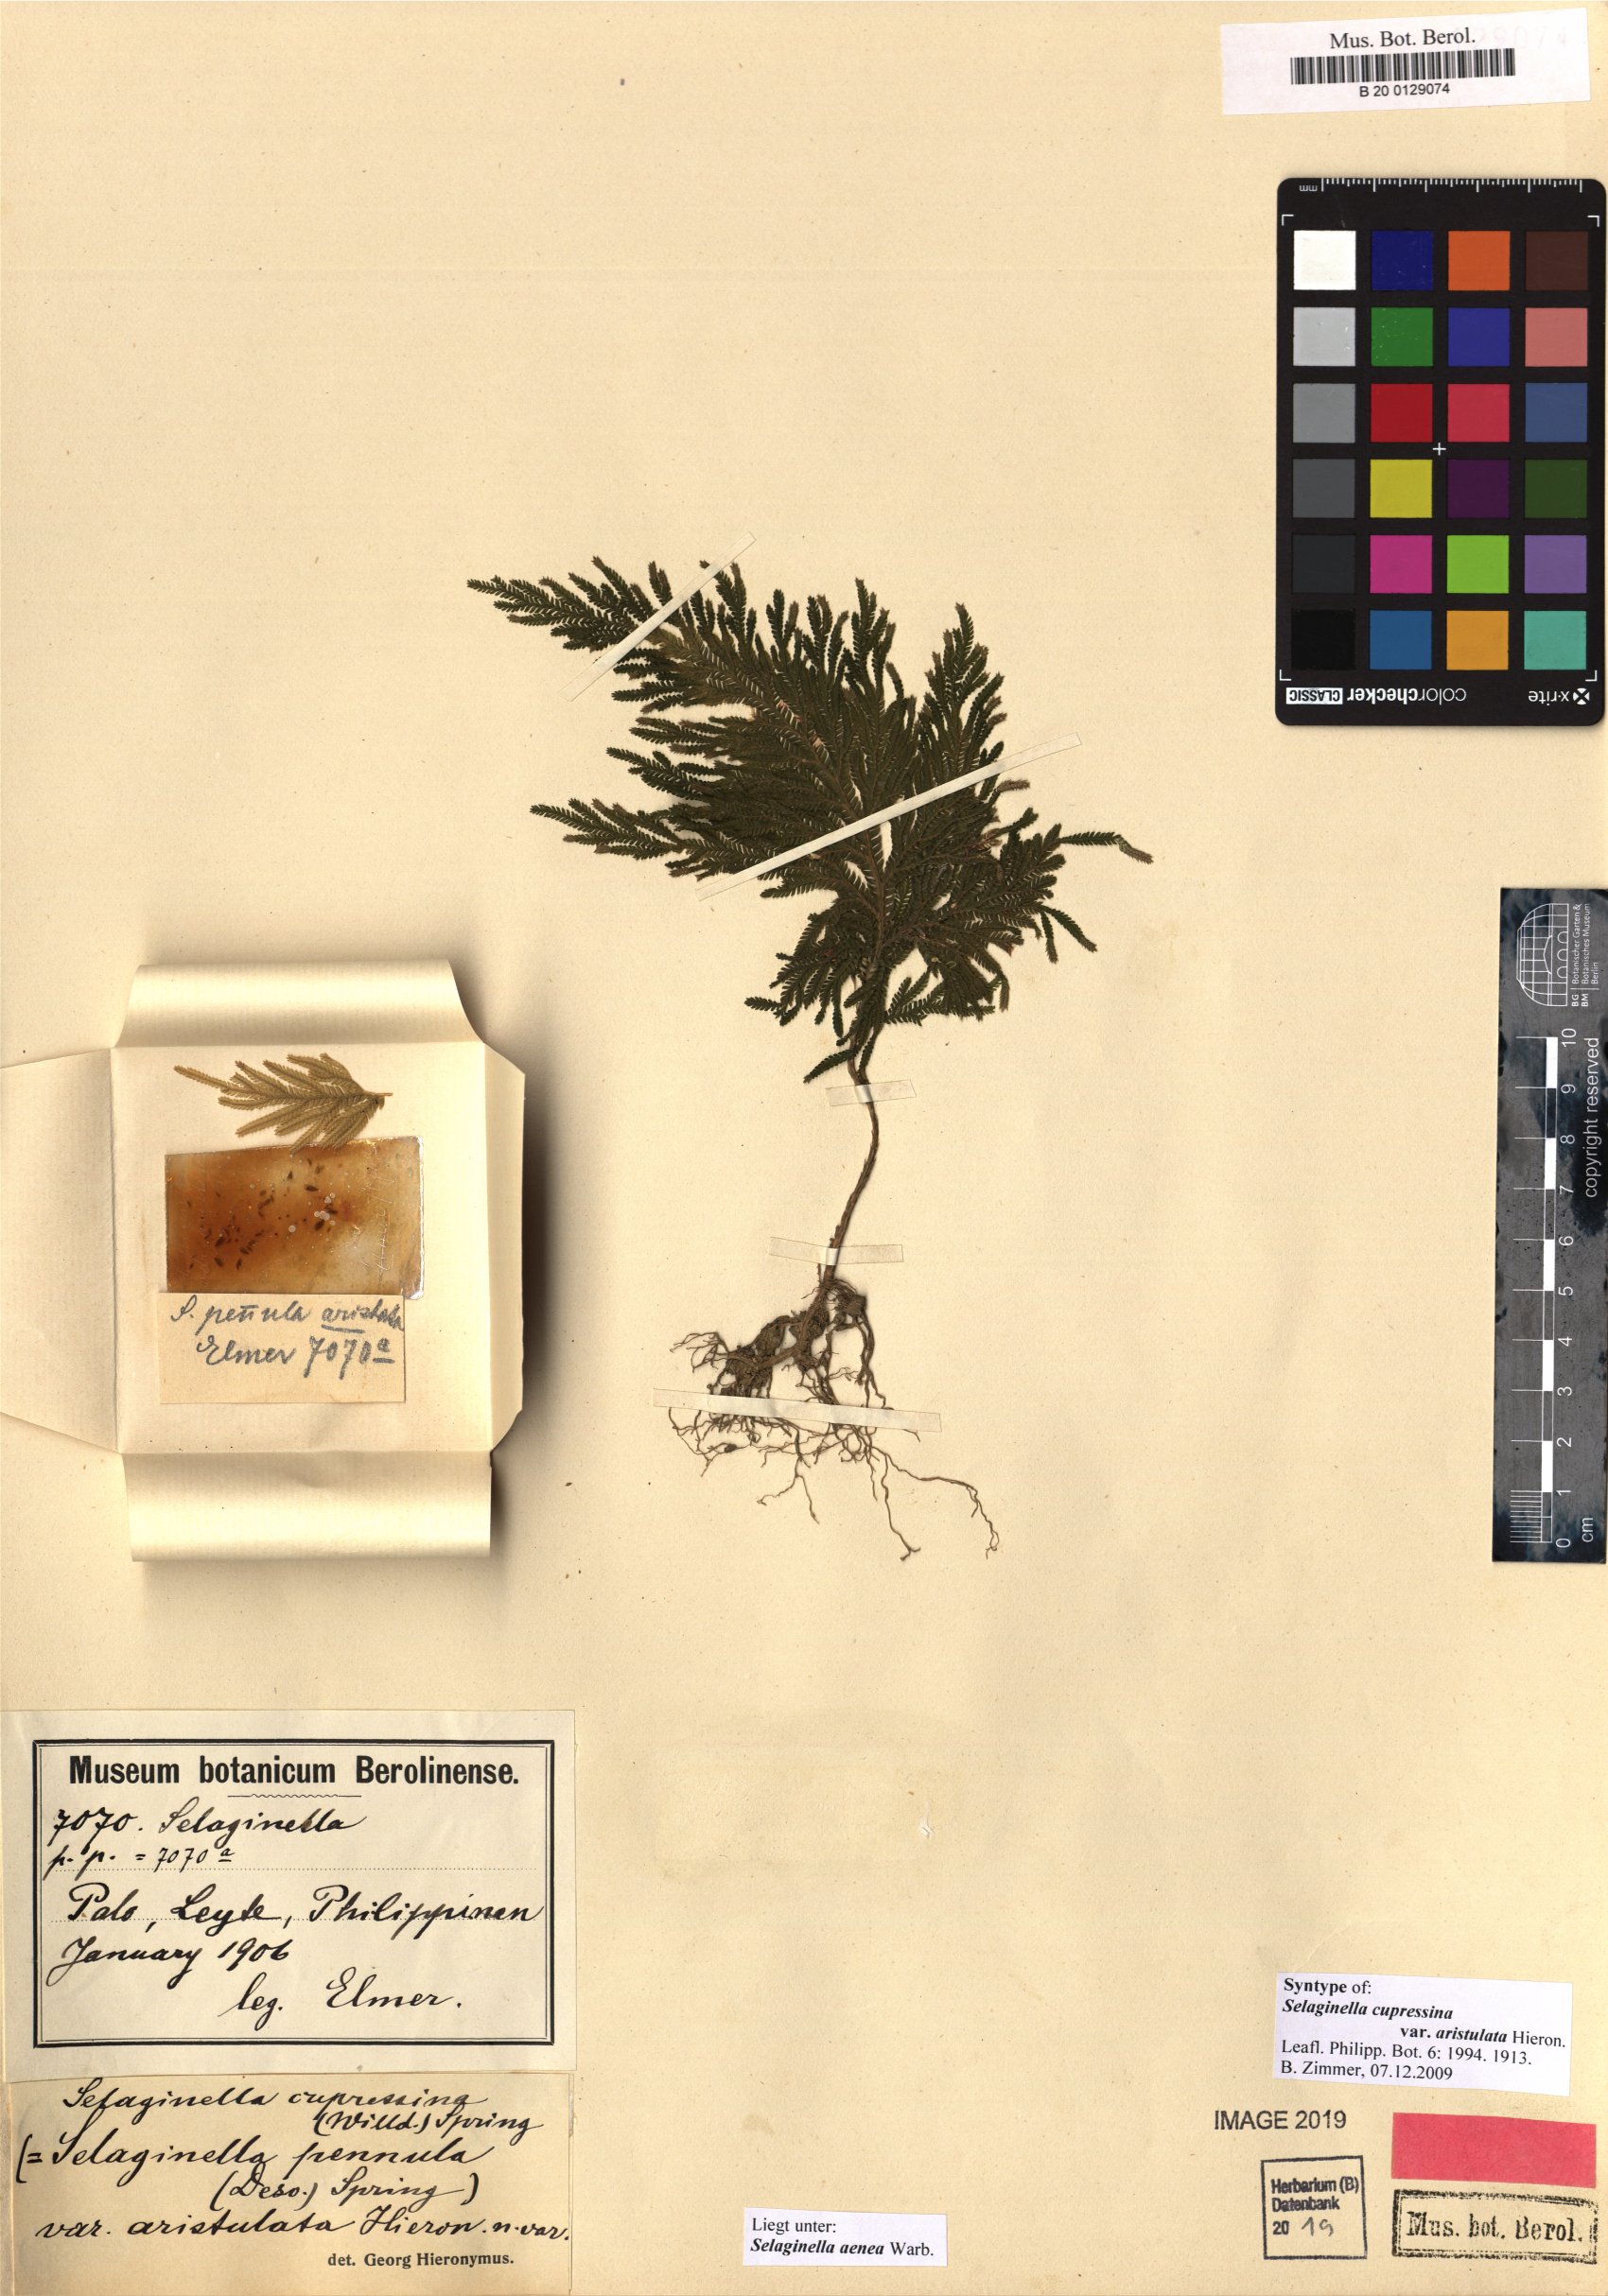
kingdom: Plantae
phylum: Tracheophyta
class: Lycopodiopsida
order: Selaginellales
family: Selaginellaceae
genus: Selaginella
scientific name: Selaginella aenea
